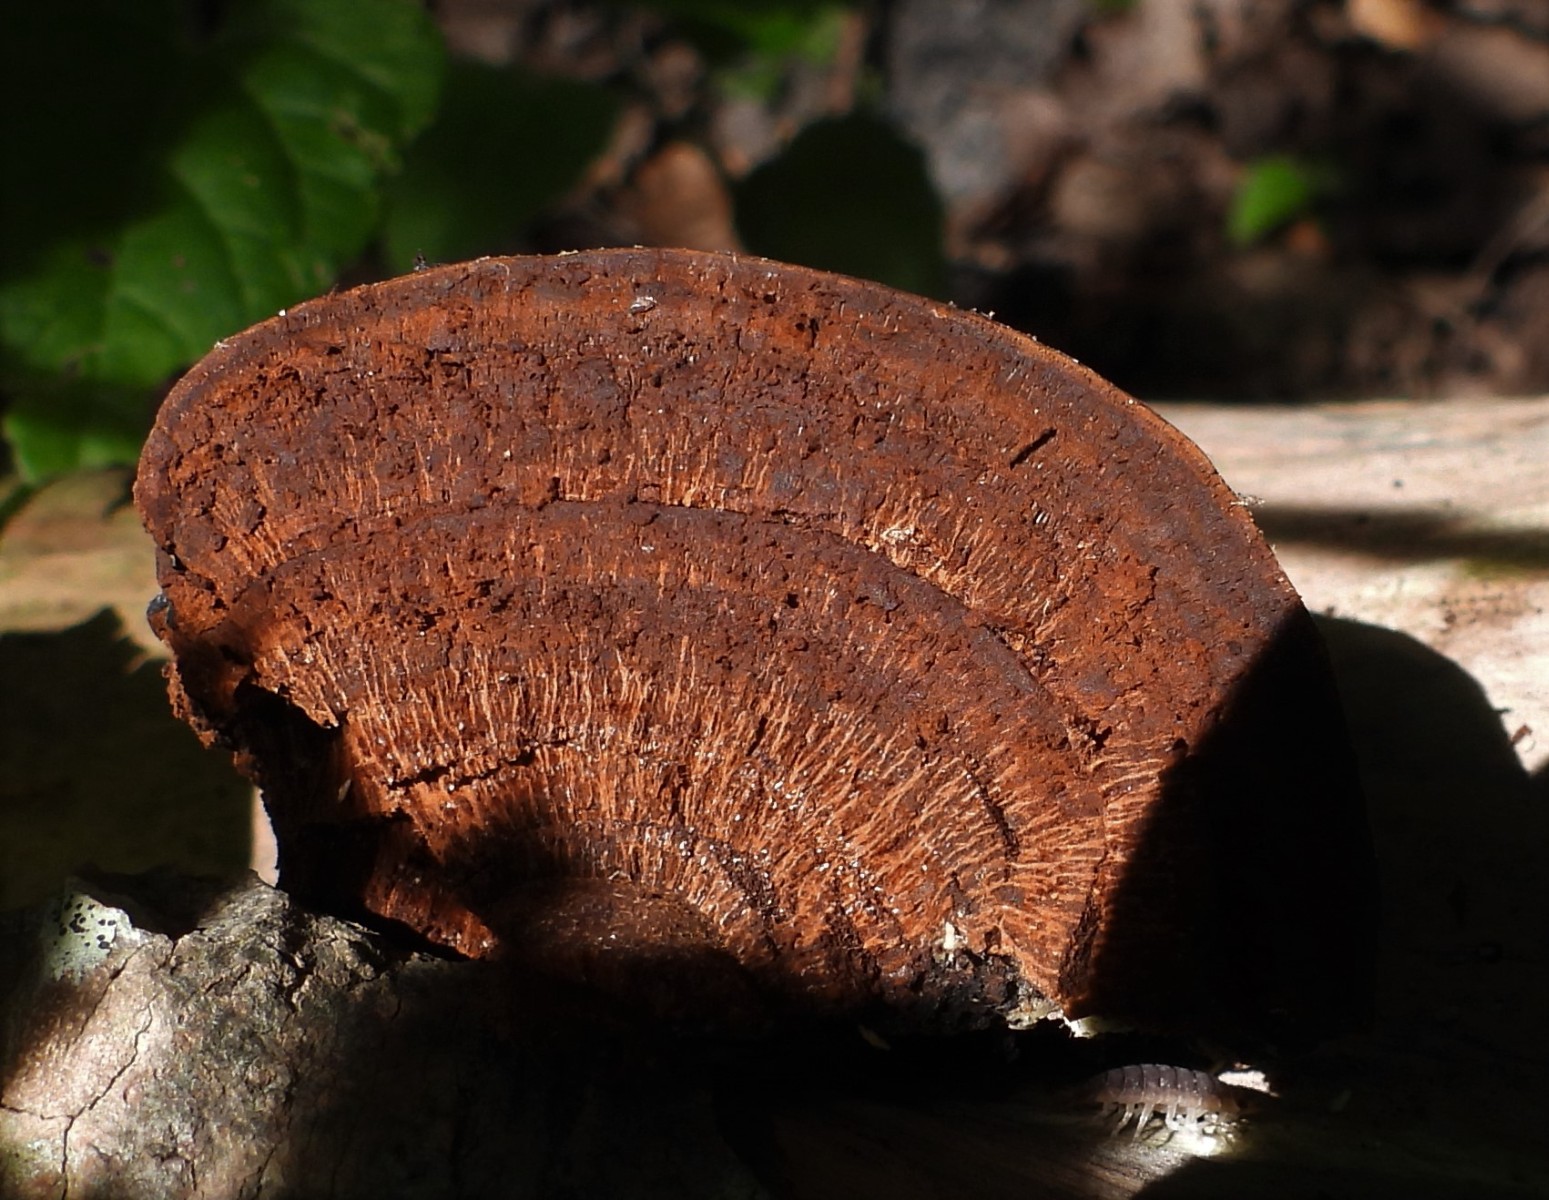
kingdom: Fungi
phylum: Basidiomycota
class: Agaricomycetes
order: Polyporales
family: Polyporaceae
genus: Fomes
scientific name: Fomes fomentarius
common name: tøndersvamp
